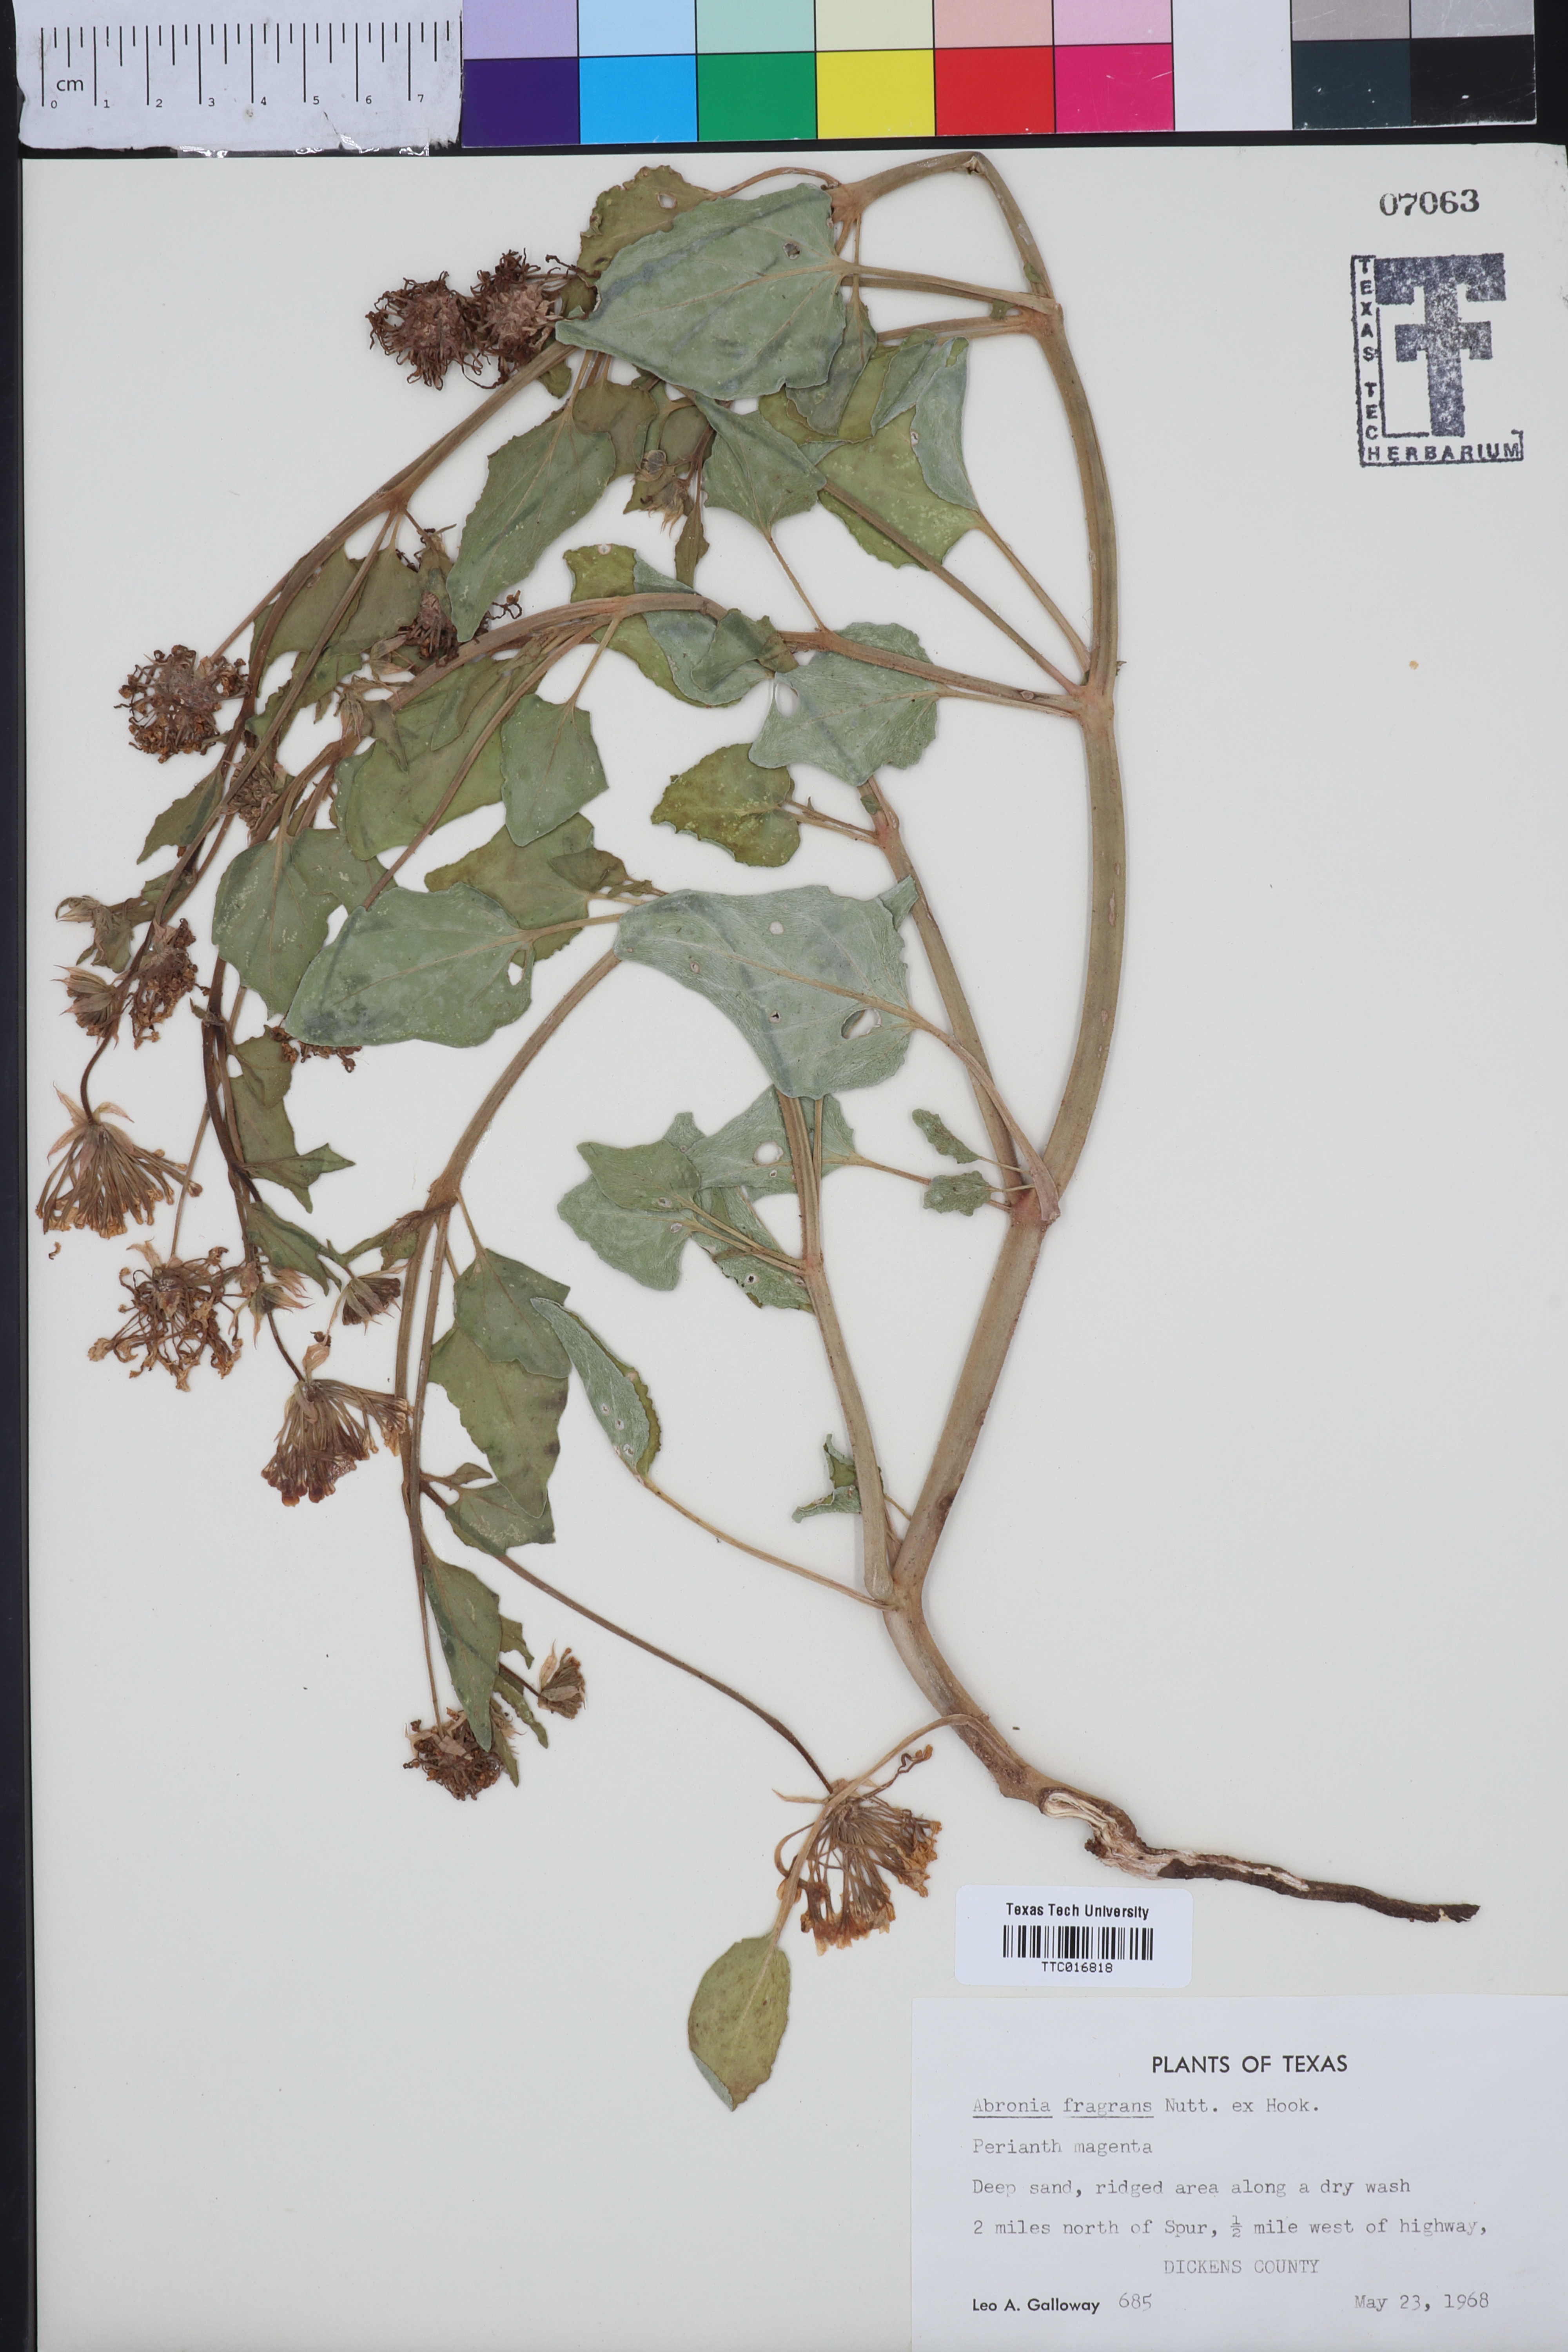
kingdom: Plantae
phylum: Tracheophyta
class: Magnoliopsida
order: Caryophyllales
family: Nyctaginaceae
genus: Abronia
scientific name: Abronia fragrans
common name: Fragrant sand-verbena
